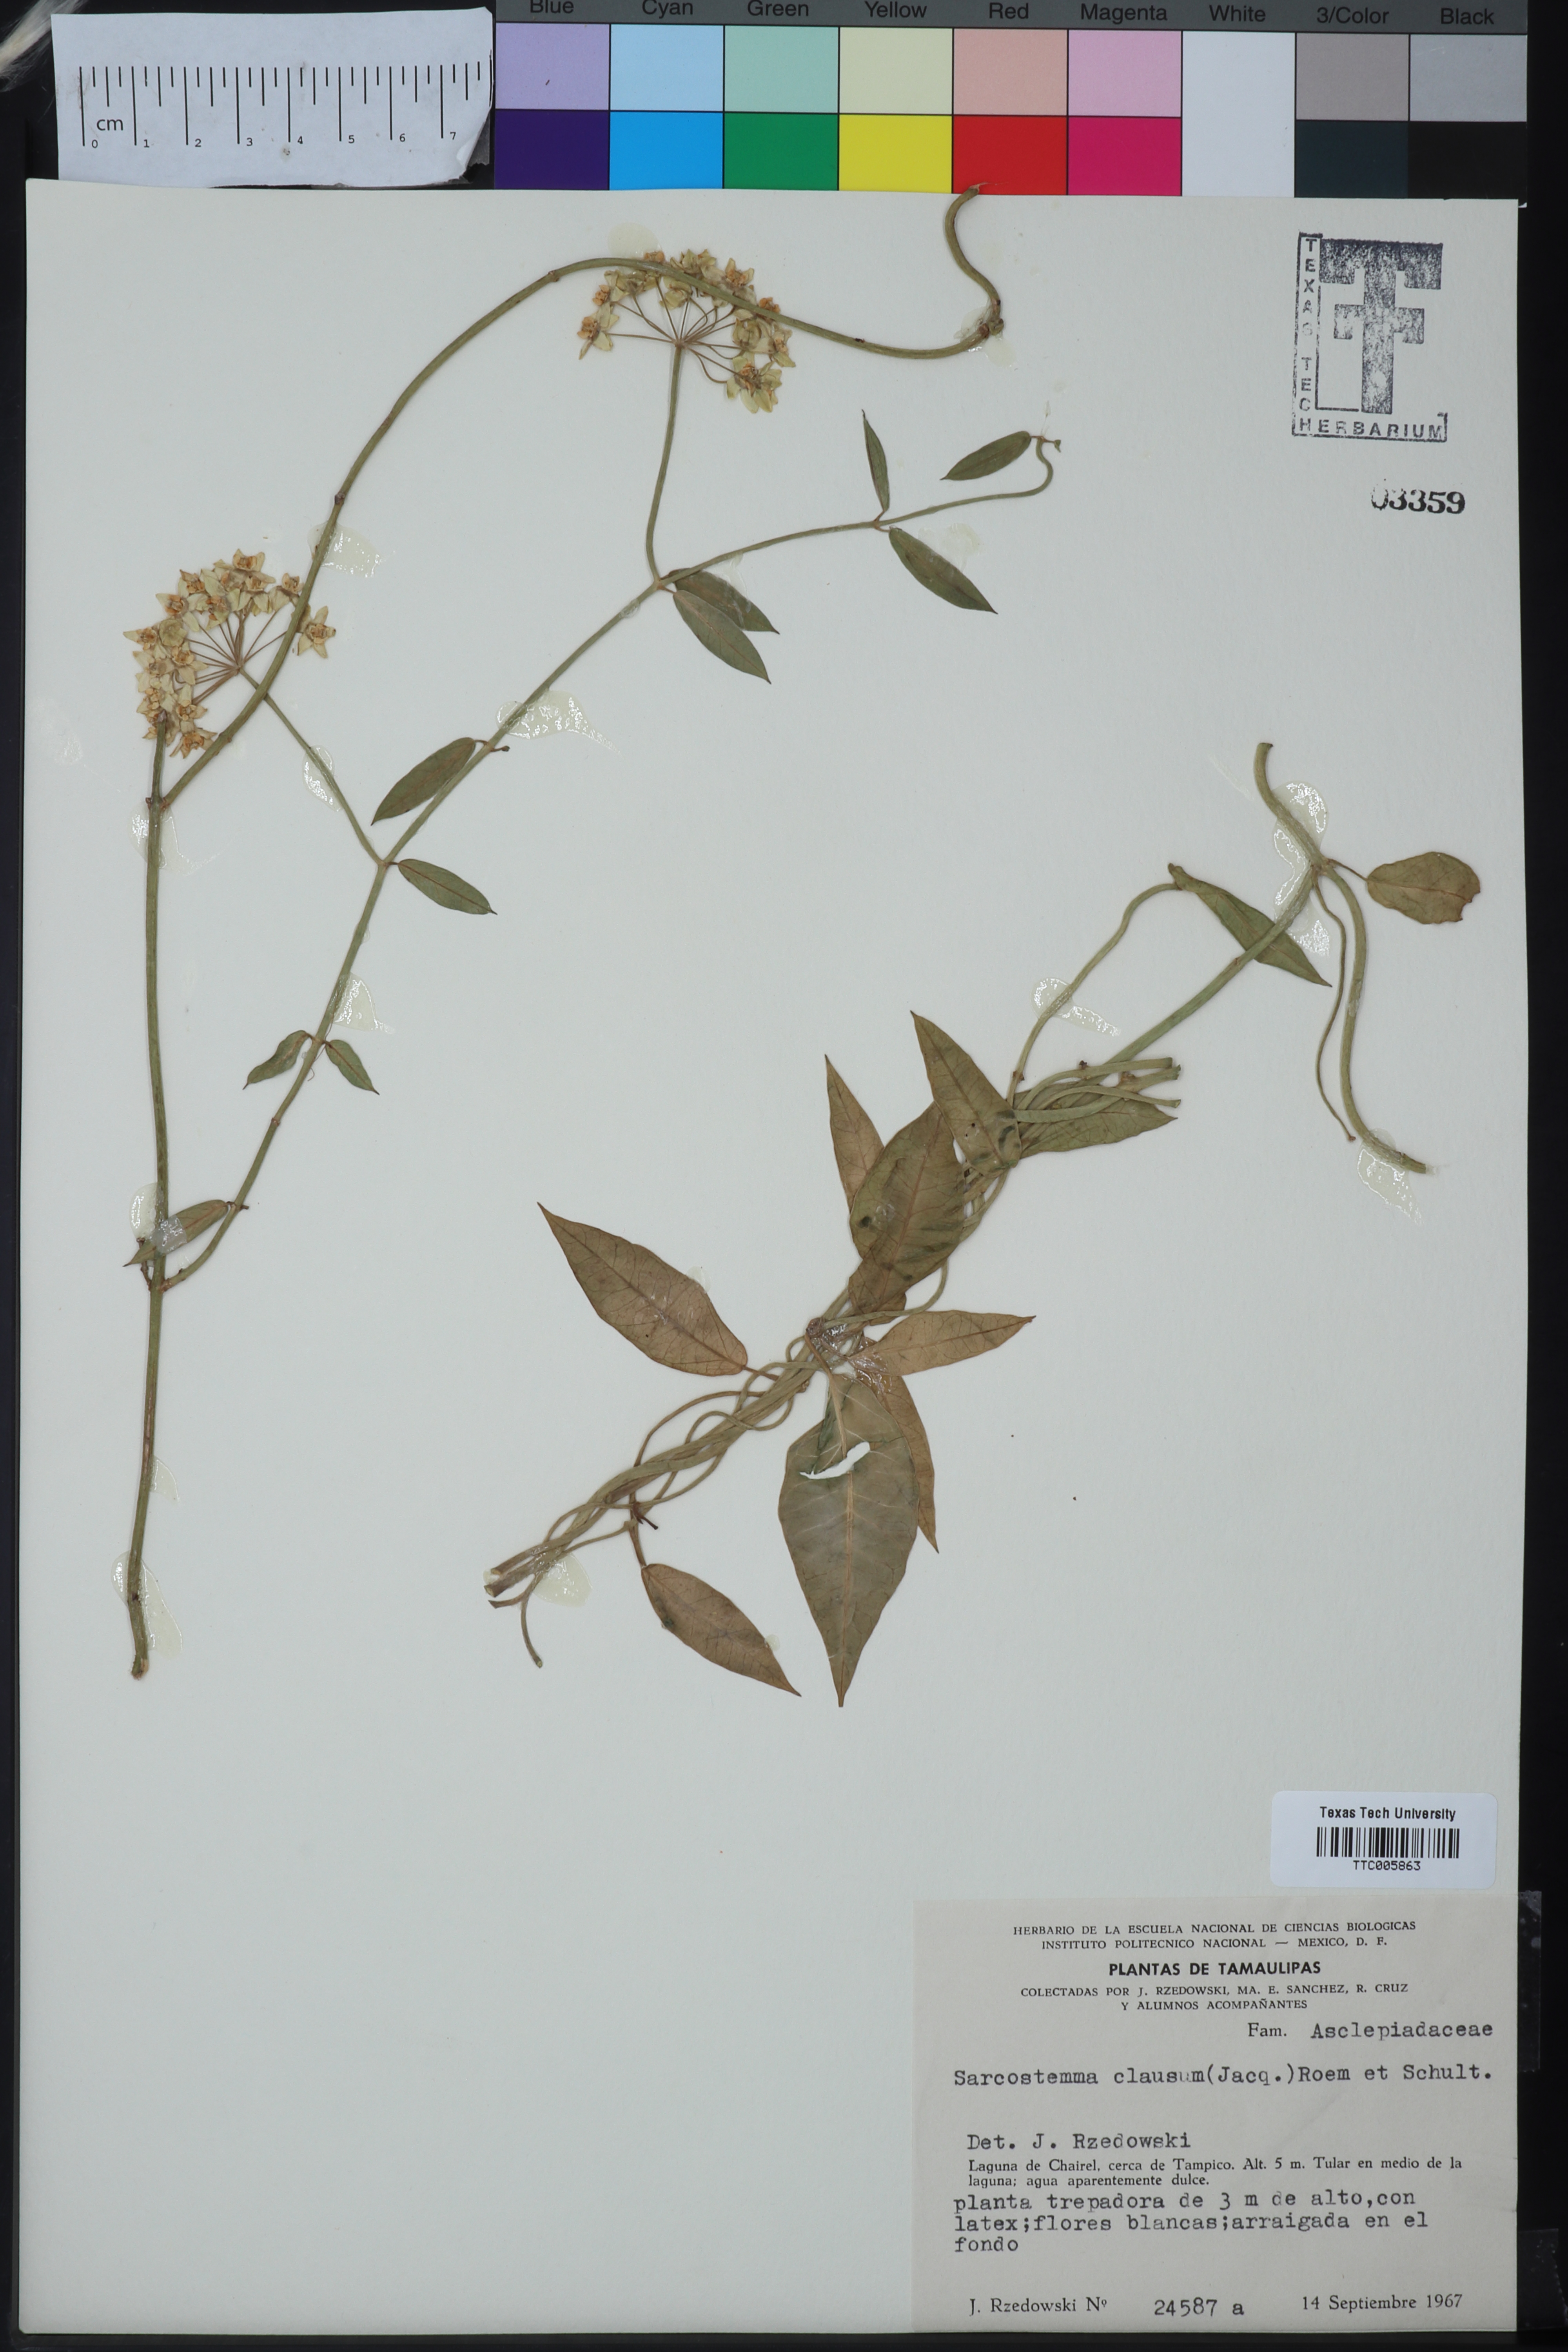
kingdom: Plantae
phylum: Tracheophyta
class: Magnoliopsida
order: Gentianales
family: Apocynaceae
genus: Funastrum
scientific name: Funastrum clausum
